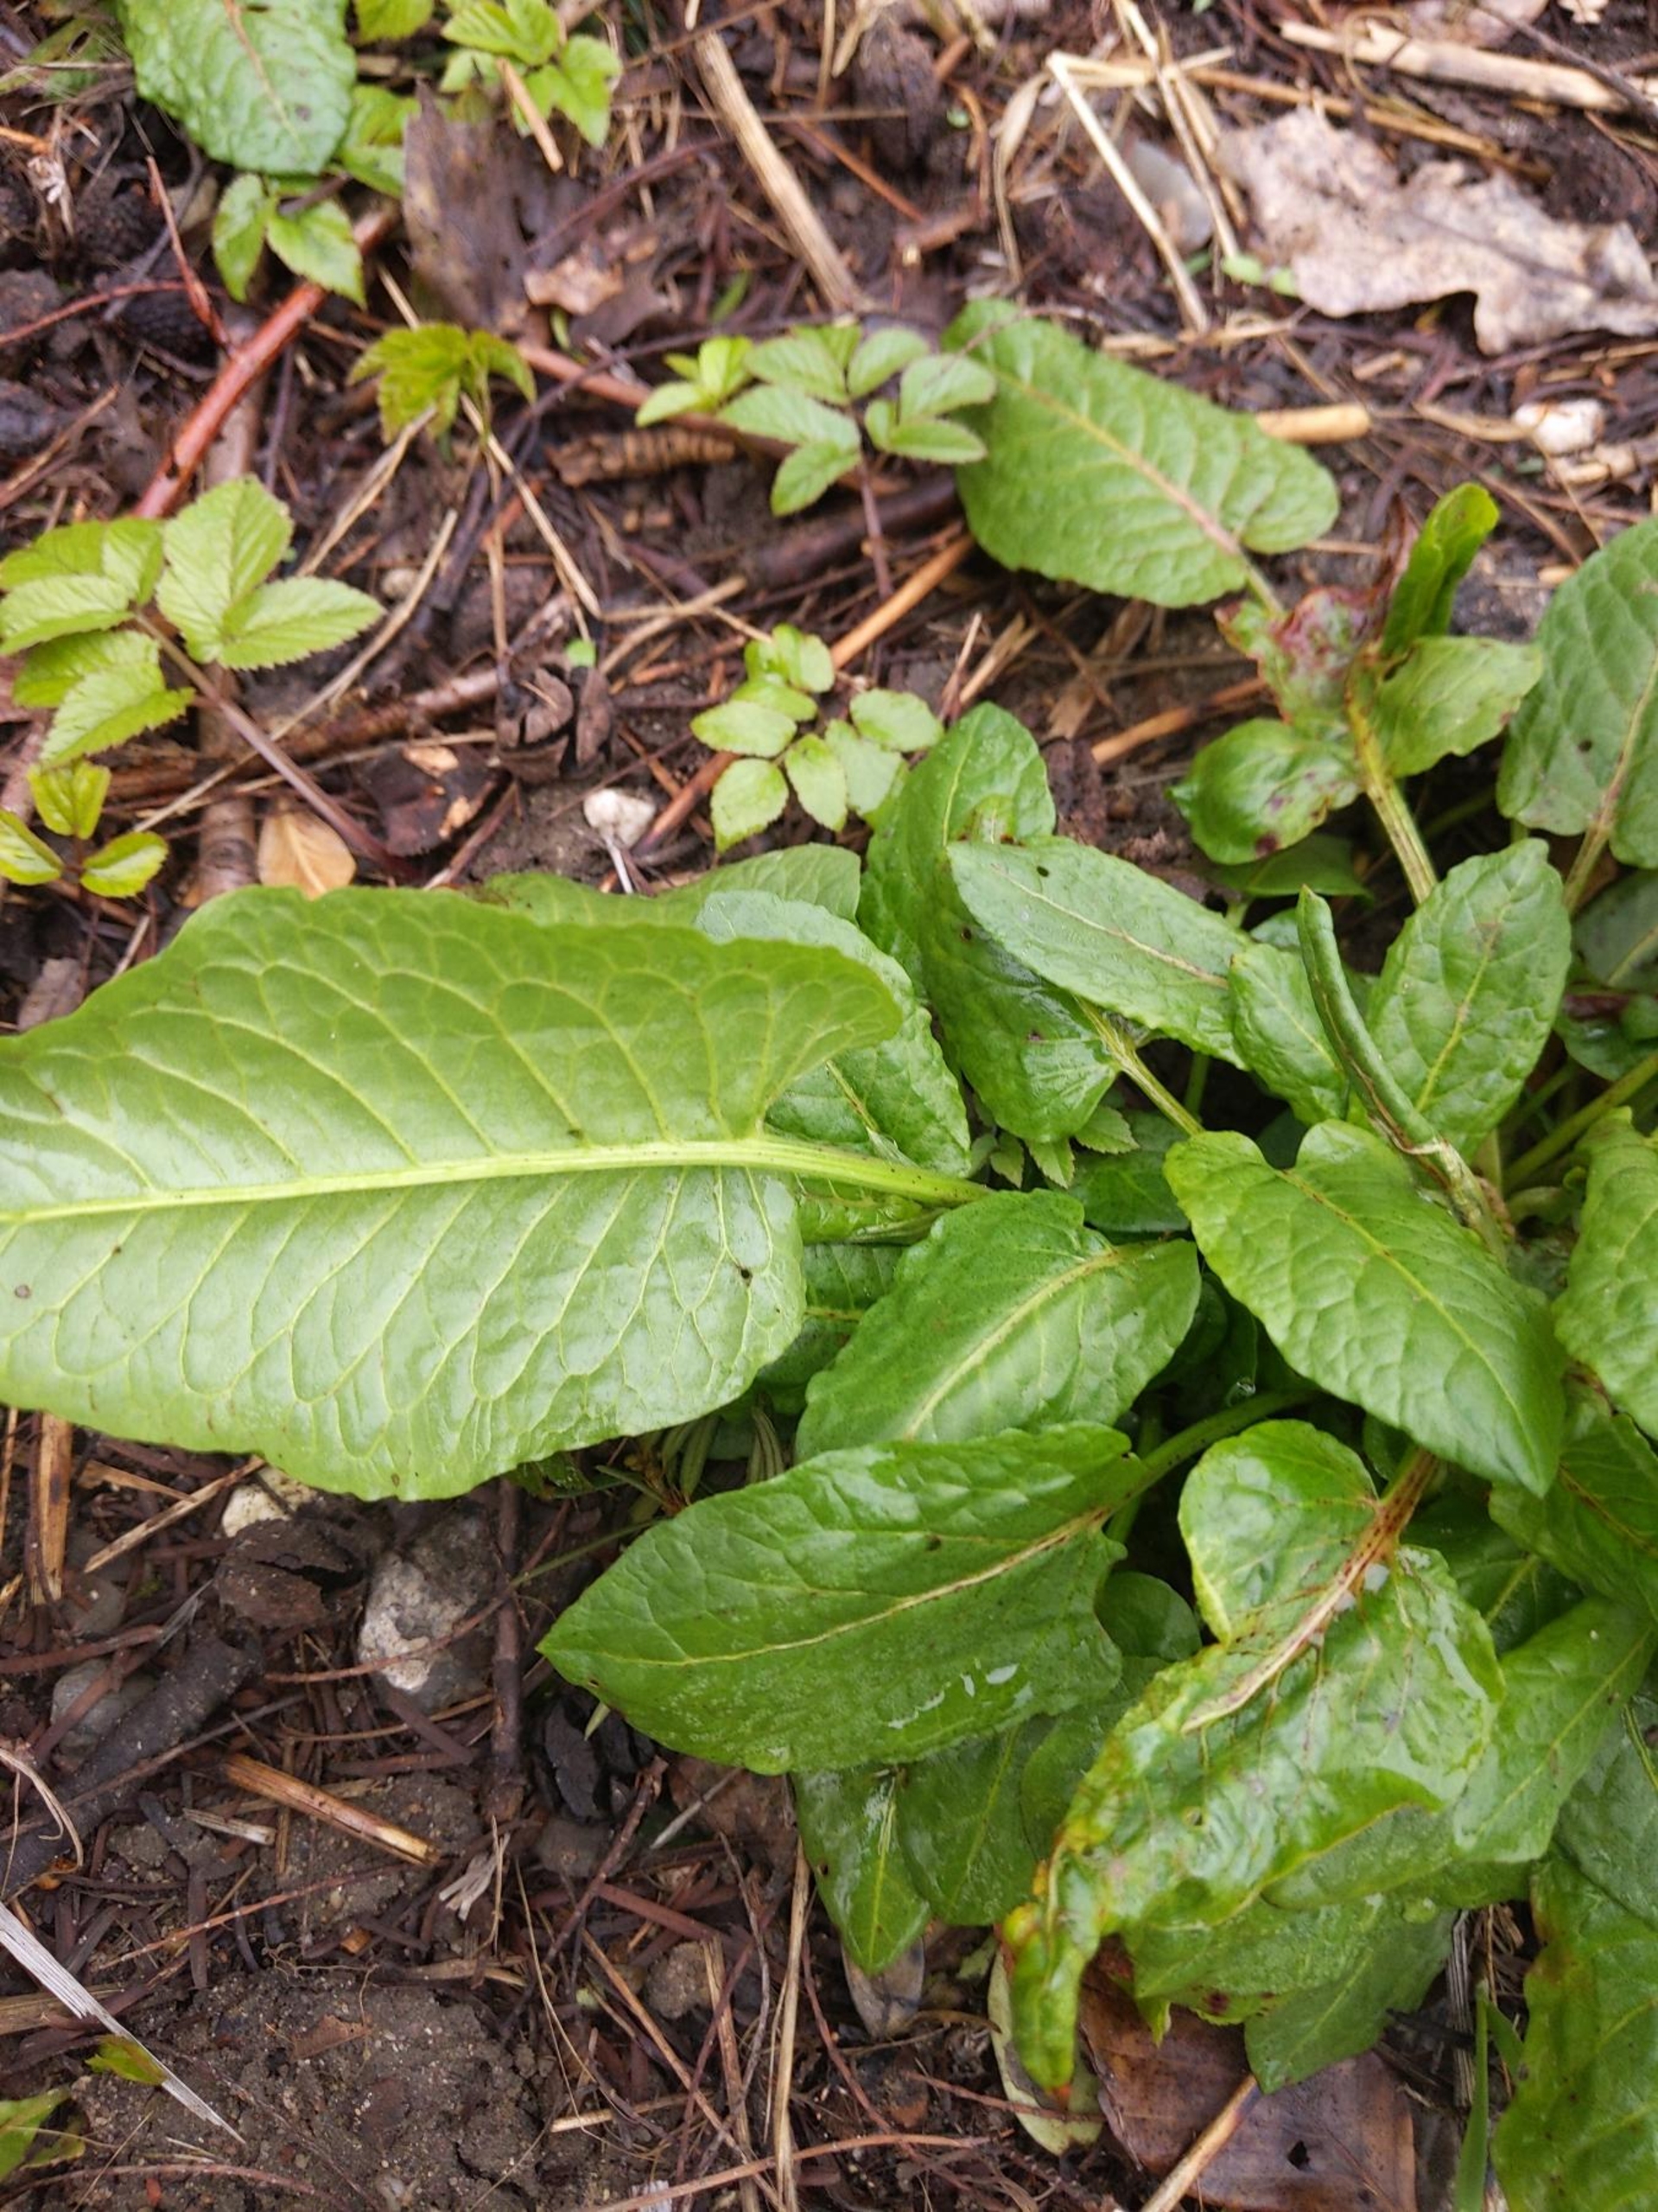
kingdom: Plantae
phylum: Tracheophyta
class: Magnoliopsida
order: Caryophyllales
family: Polygonaceae
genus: Rumex
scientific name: Rumex obtusifolius
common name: Butbladet skræppe
